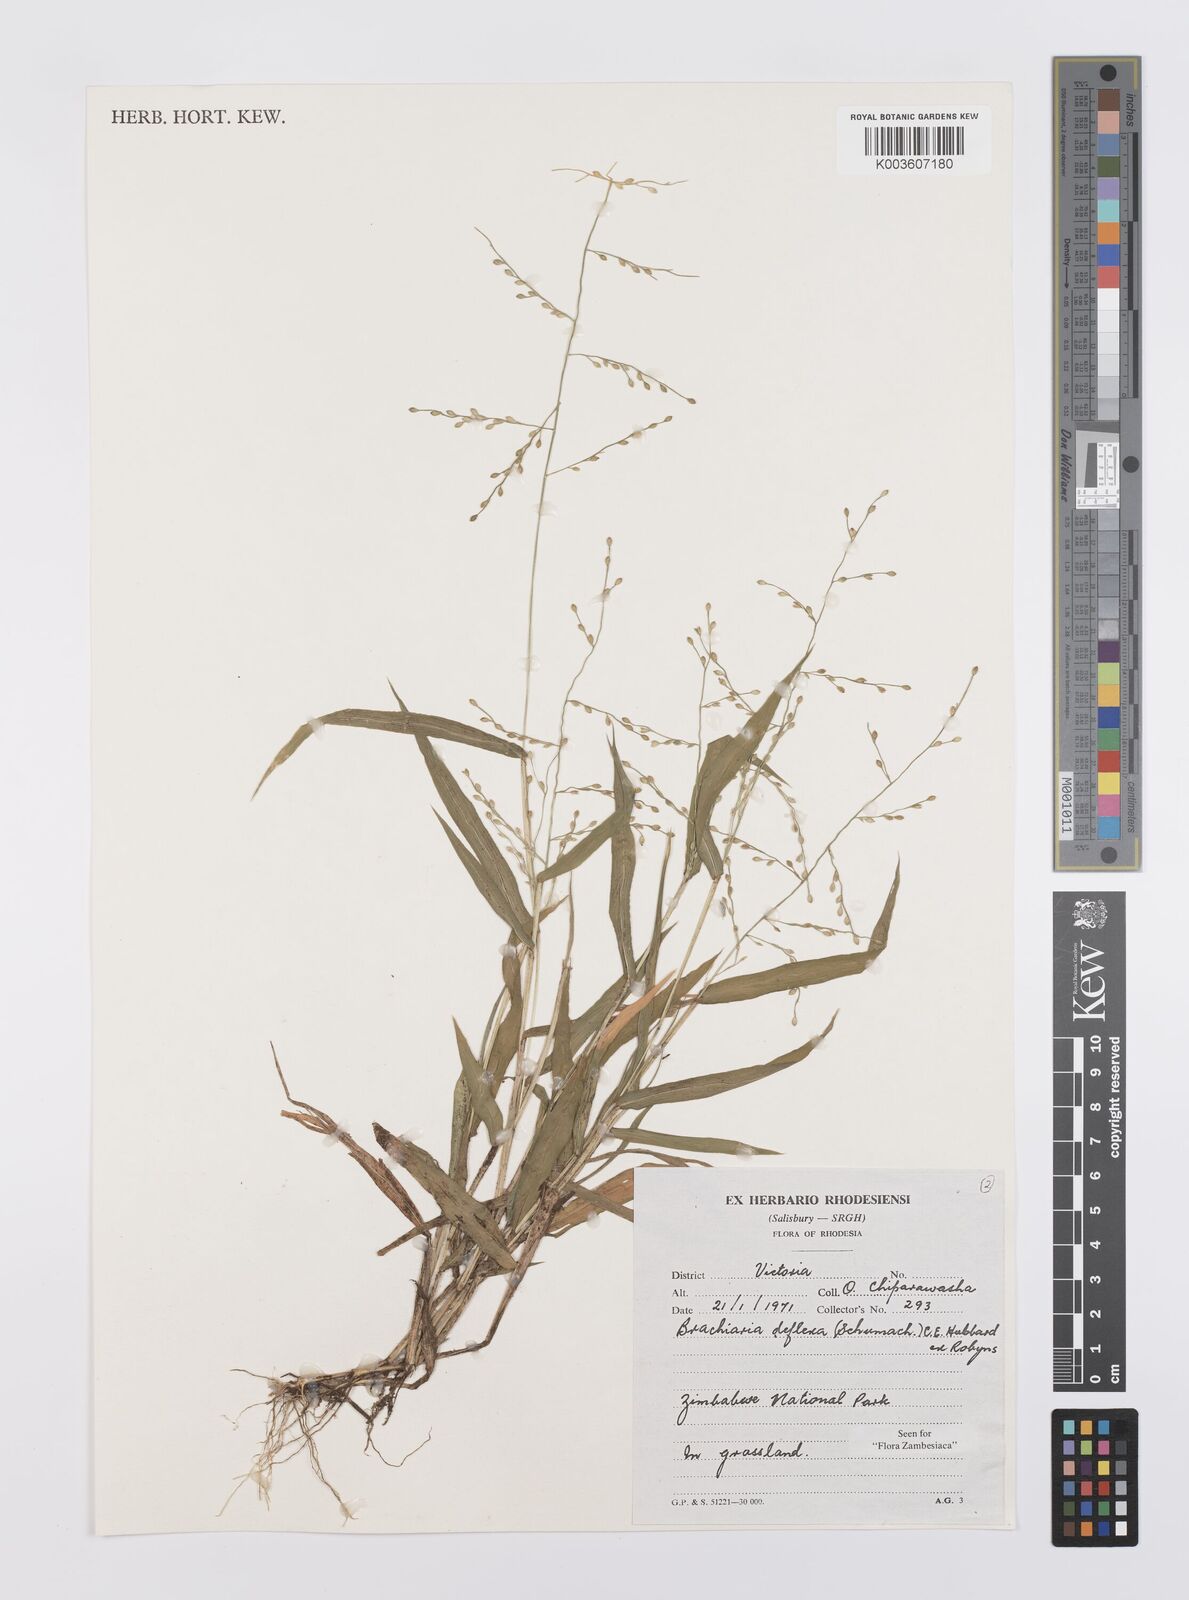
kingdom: Plantae
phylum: Tracheophyta
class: Liliopsida
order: Poales
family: Poaceae
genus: Urochloa
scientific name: Urochloa deflexa
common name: Guinea millet
